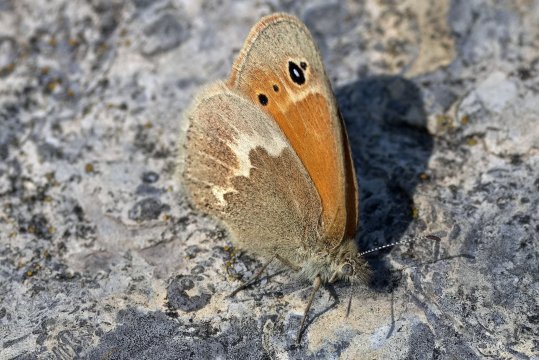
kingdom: Animalia
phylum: Arthropoda
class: Insecta
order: Lepidoptera
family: Nymphalidae
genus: Coenonympha
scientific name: Coenonympha california
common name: California Ringlet
